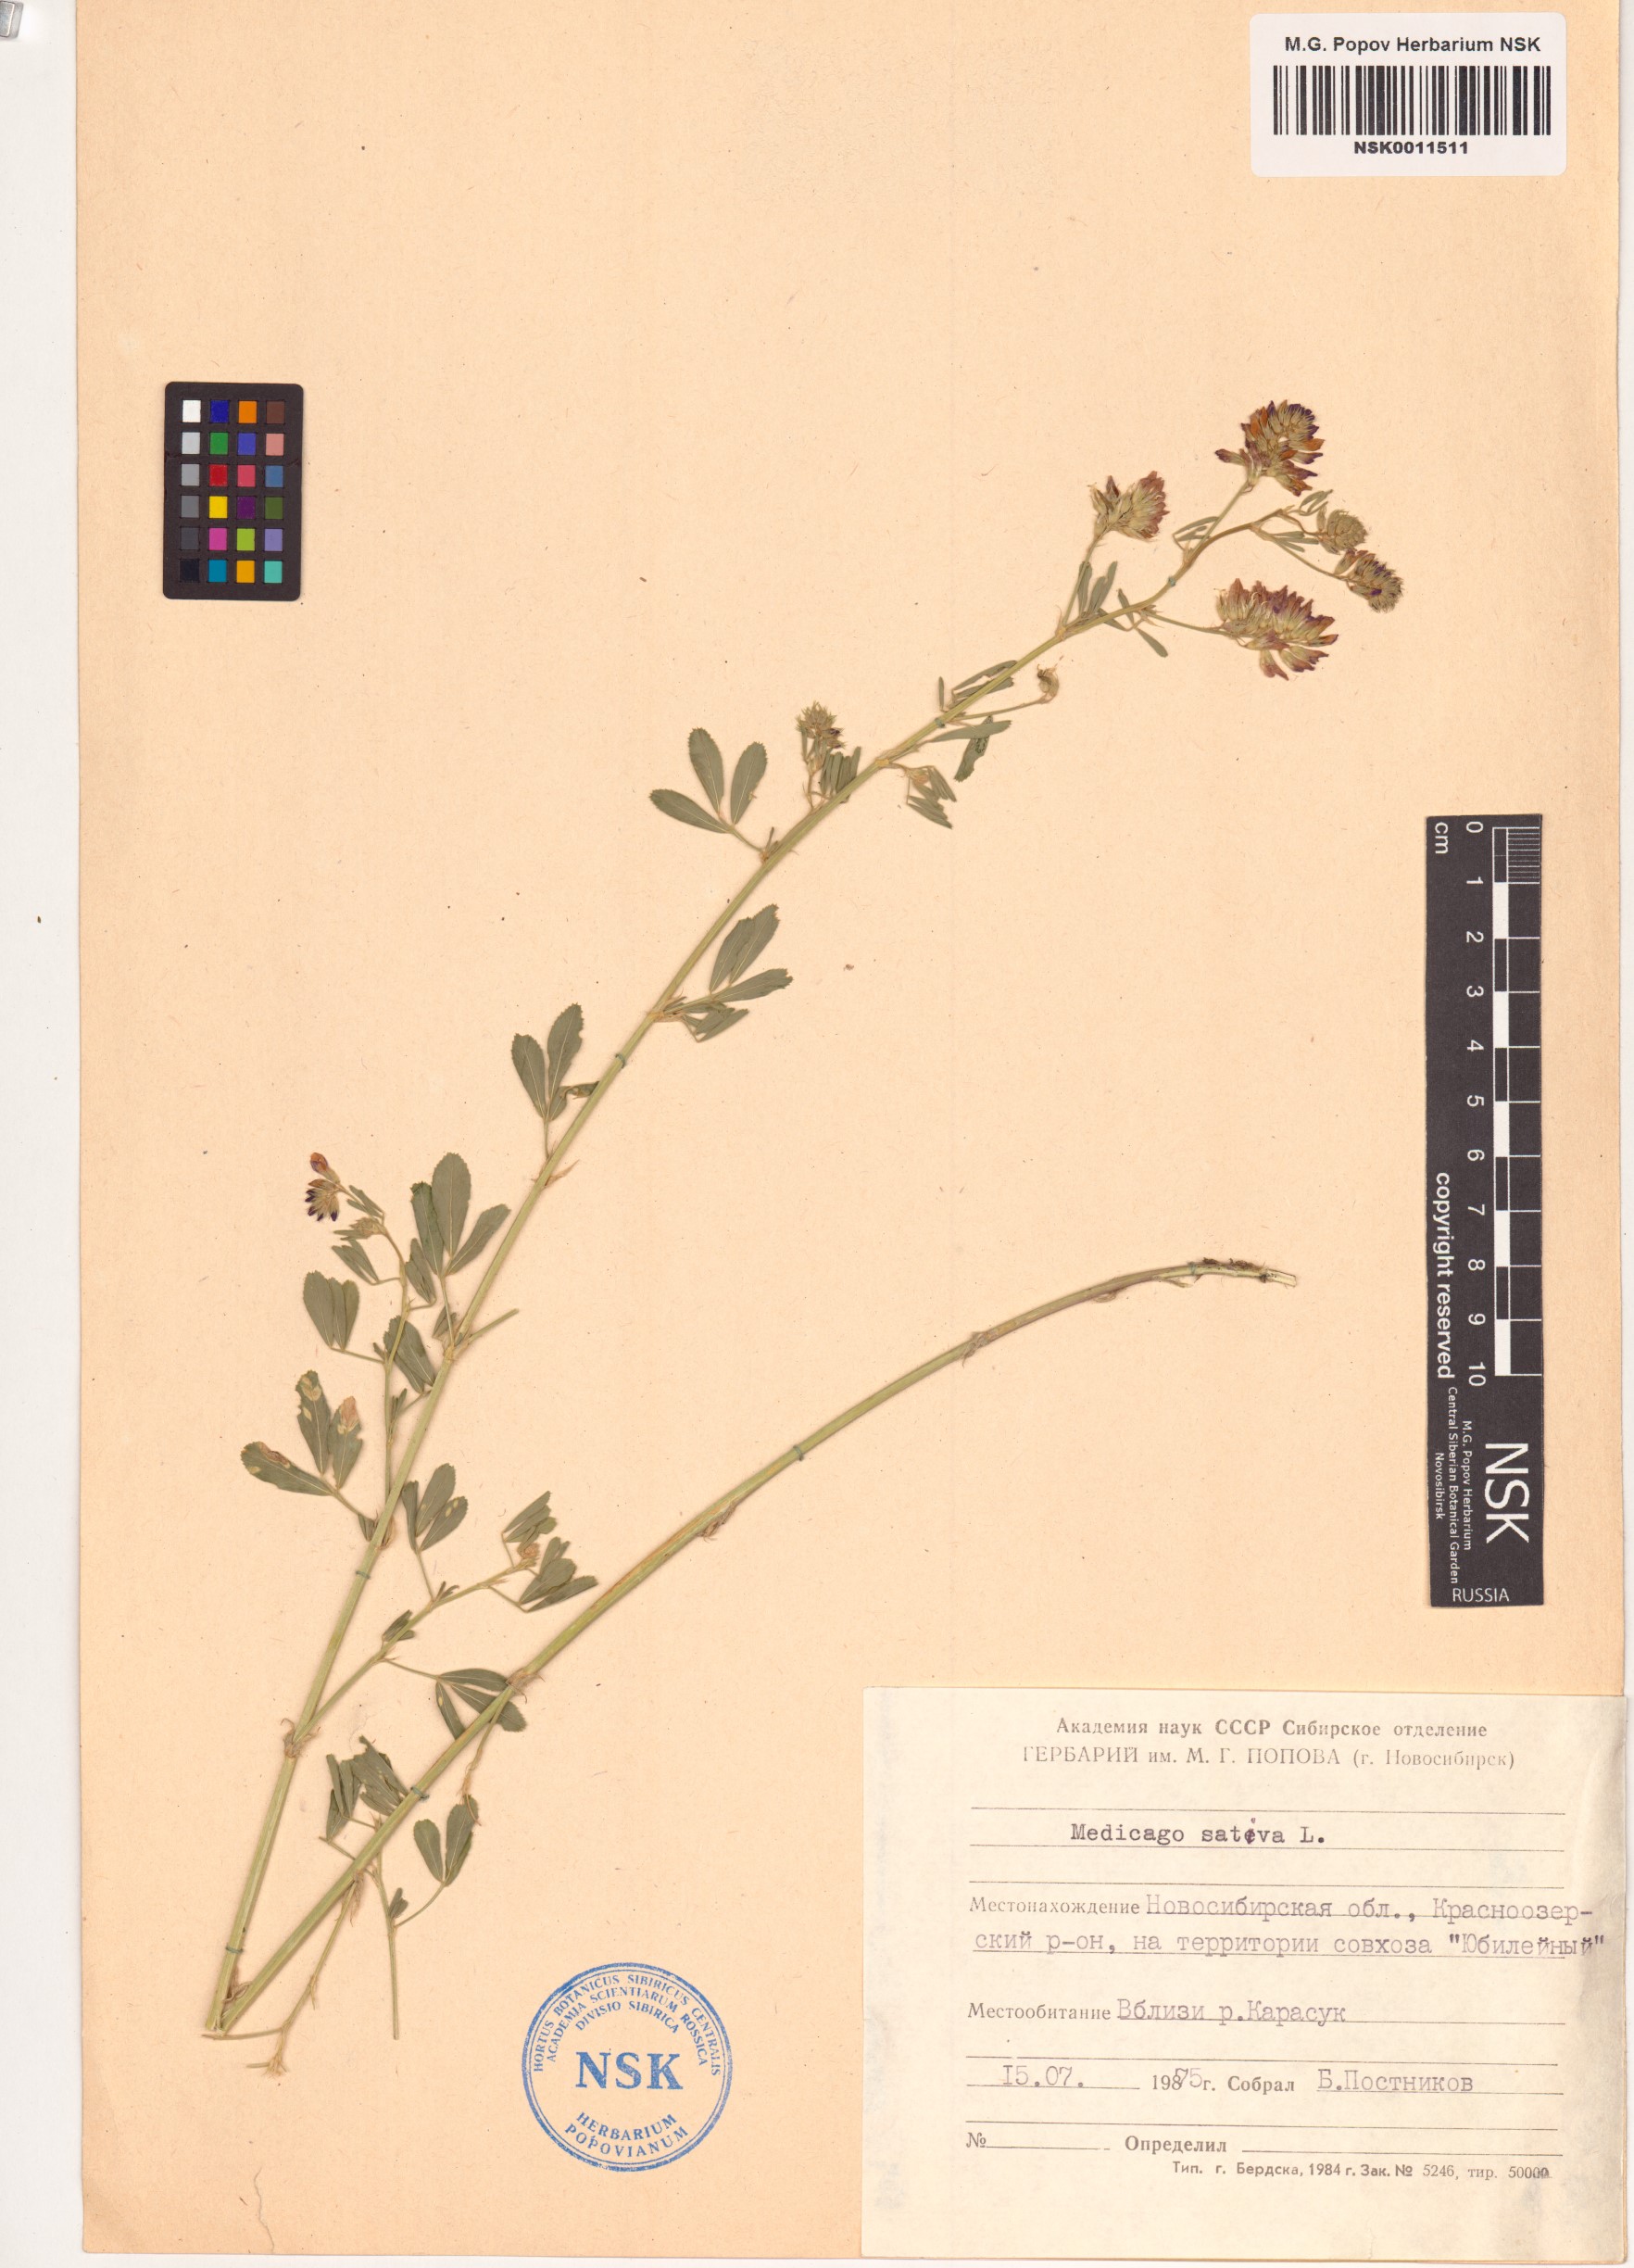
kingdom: Plantae
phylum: Tracheophyta
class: Magnoliopsida
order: Fabales
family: Fabaceae
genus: Medicago
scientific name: Medicago sativa
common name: Alfalfa
